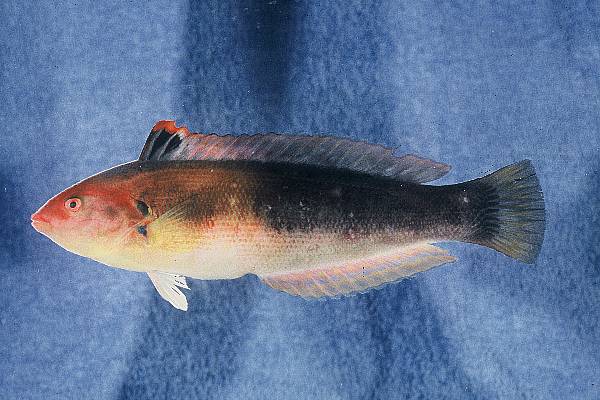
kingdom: Animalia
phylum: Chordata
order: Perciformes
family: Labridae
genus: Coris
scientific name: Coris julis
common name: Rainbow wrasse
